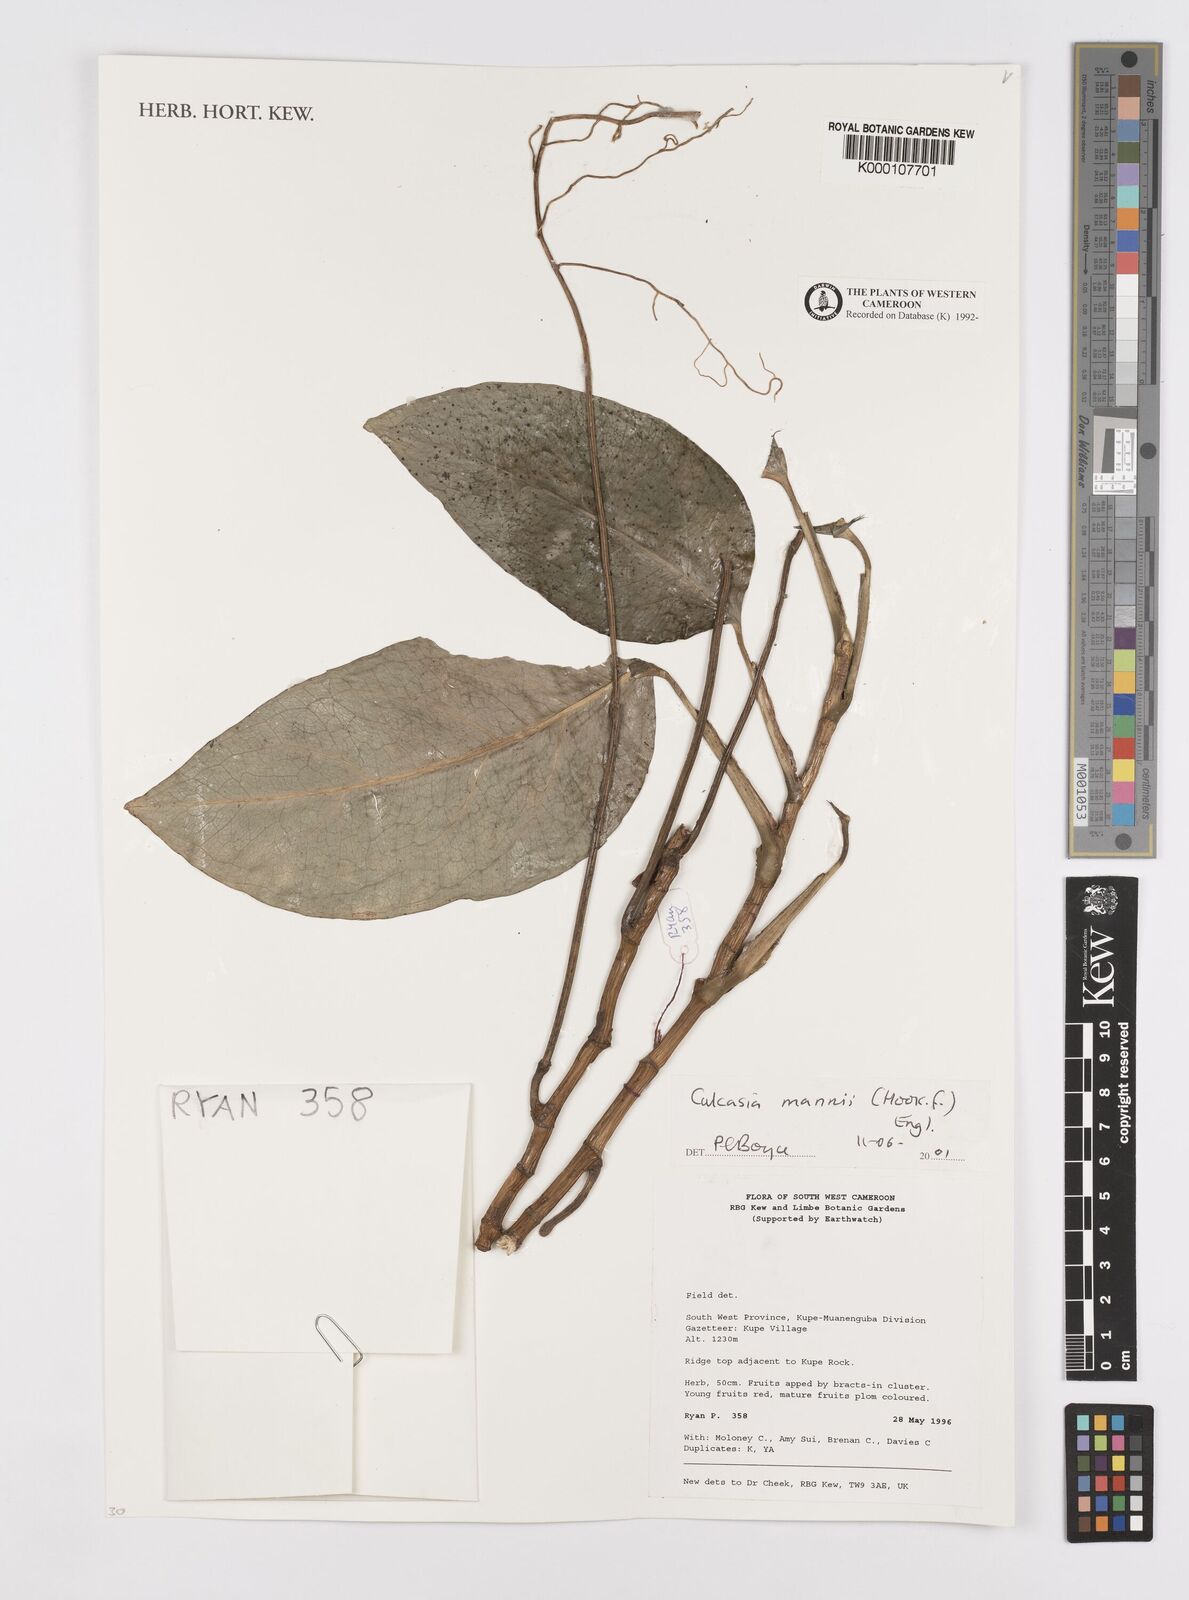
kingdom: Plantae
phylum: Tracheophyta
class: Liliopsida
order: Alismatales
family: Araceae
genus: Culcasia
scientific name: Culcasia mannii
